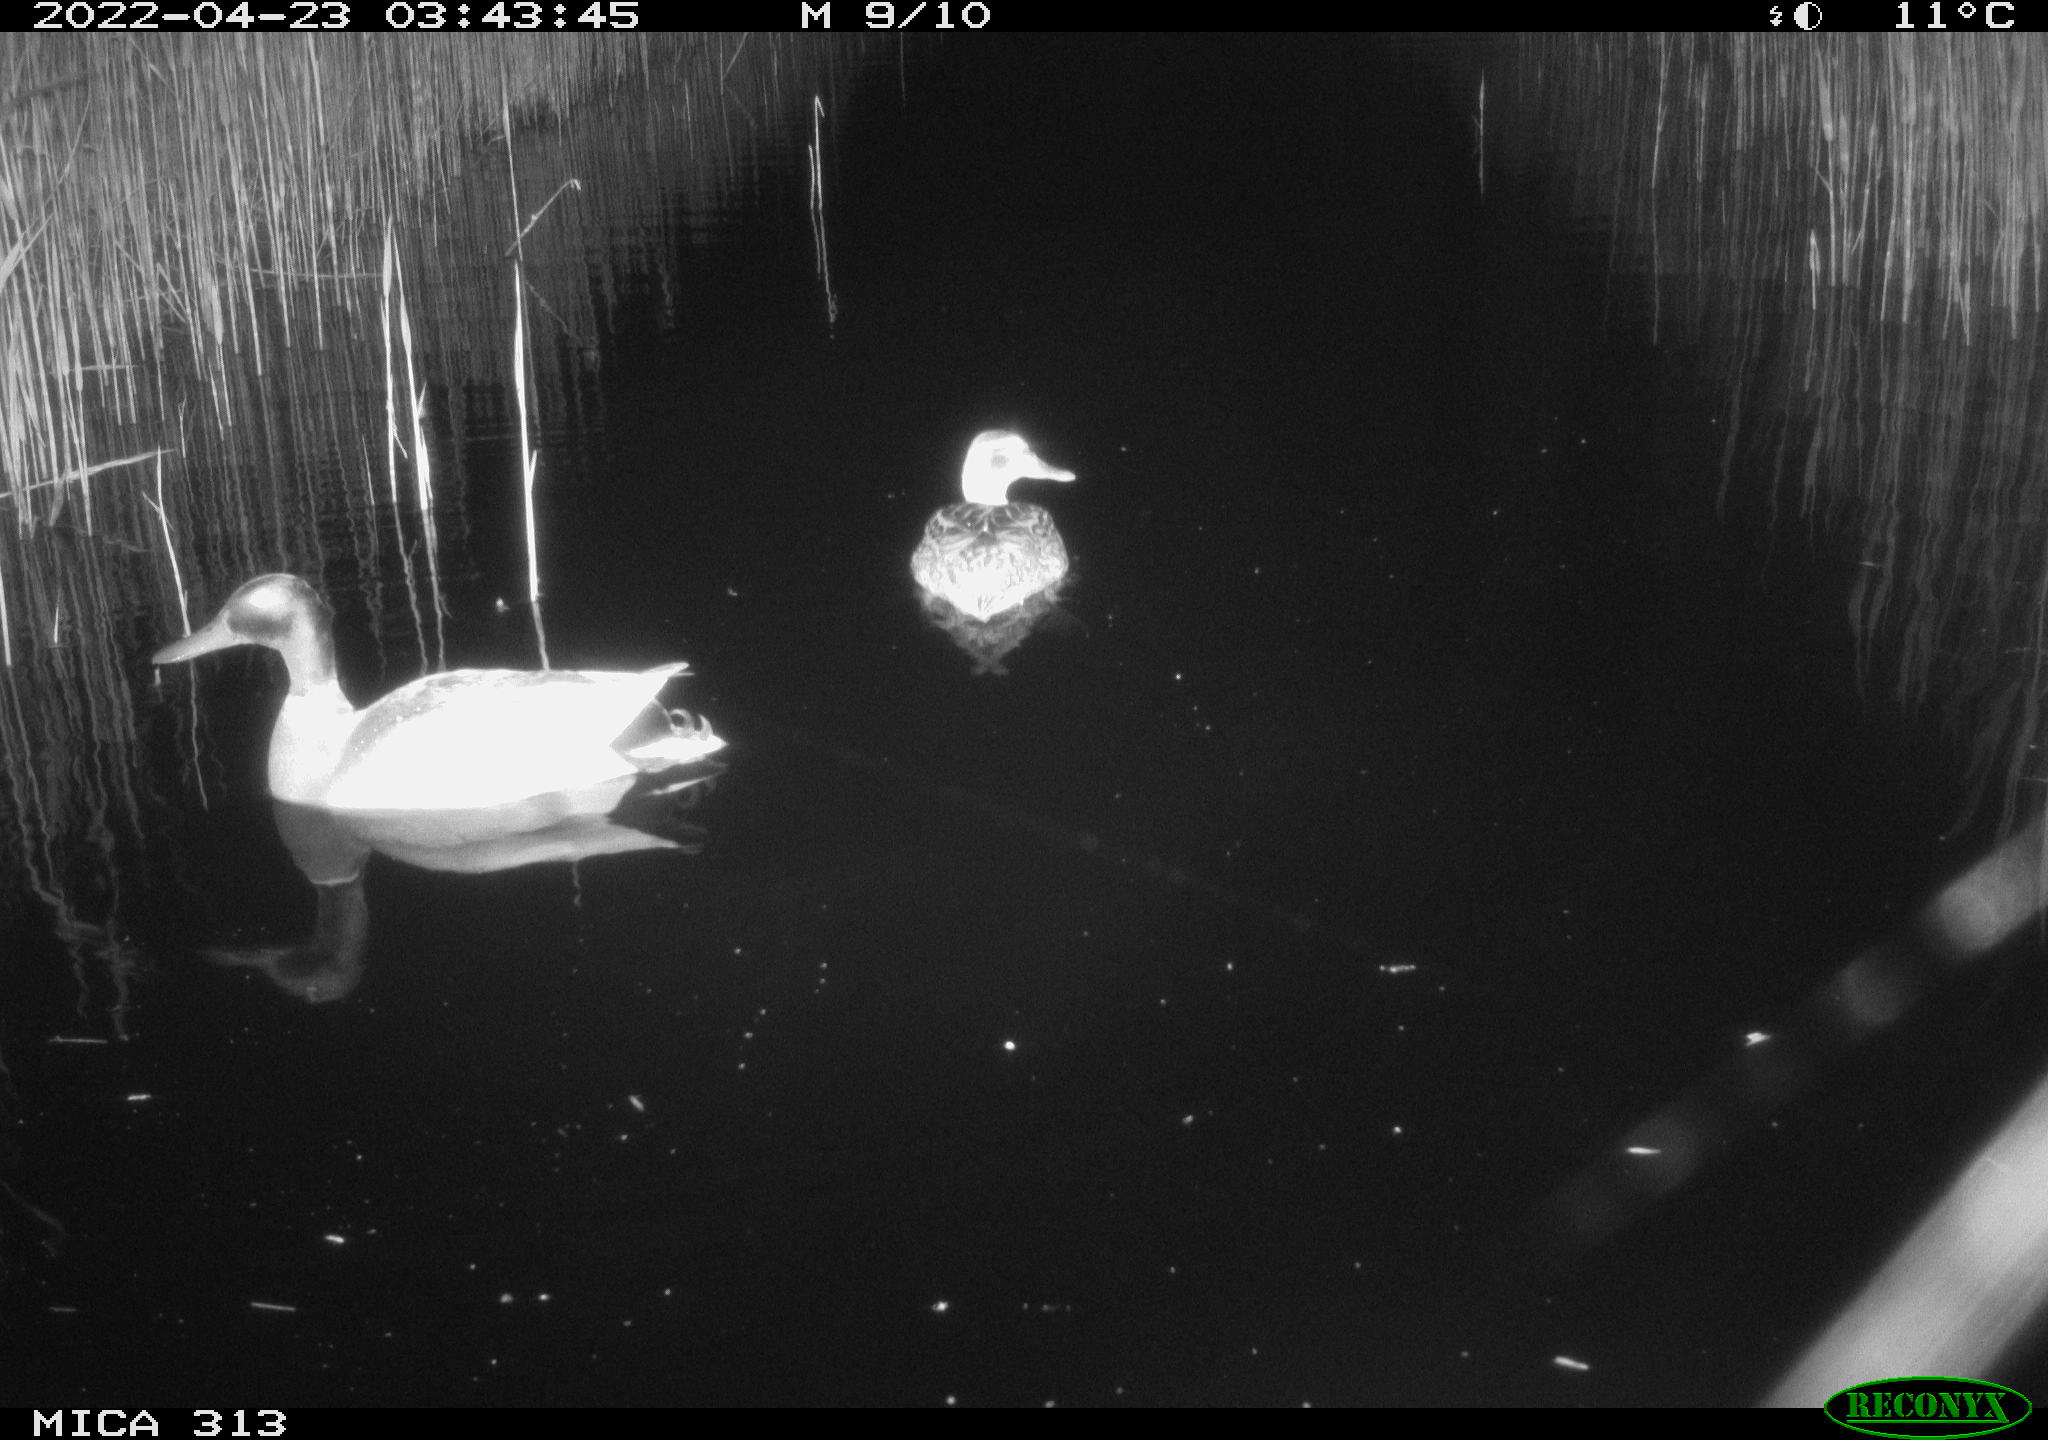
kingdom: Animalia
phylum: Chordata
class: Aves
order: Anseriformes
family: Anatidae
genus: Anas
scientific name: Anas platyrhynchos
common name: Mallard
